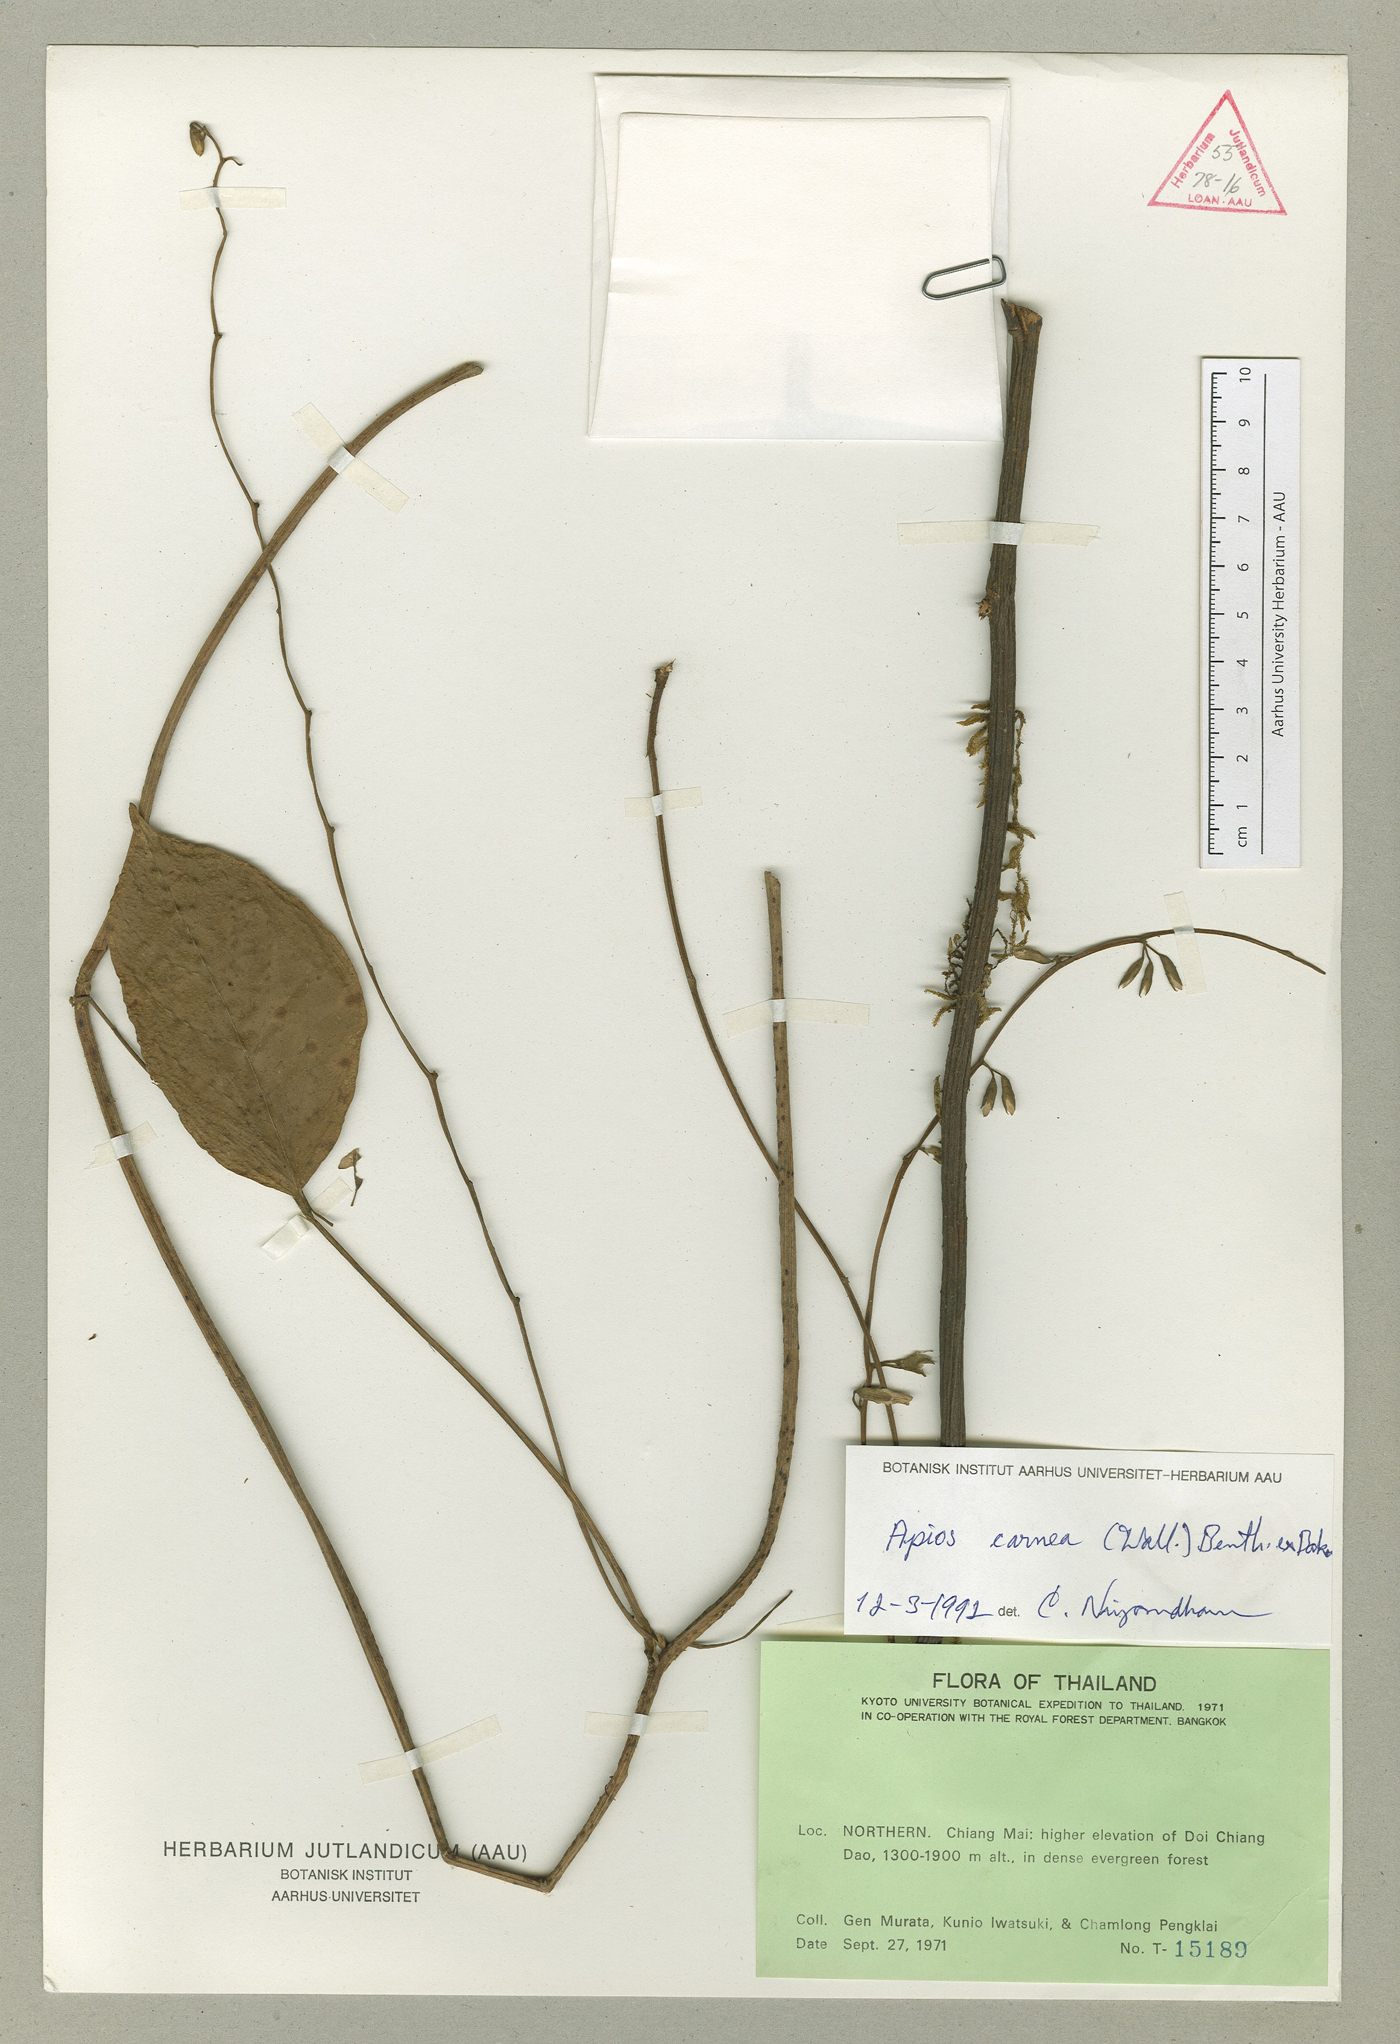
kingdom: Plantae
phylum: Tracheophyta
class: Magnoliopsida
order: Fabales
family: Fabaceae
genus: Apios
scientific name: Apios carnea
